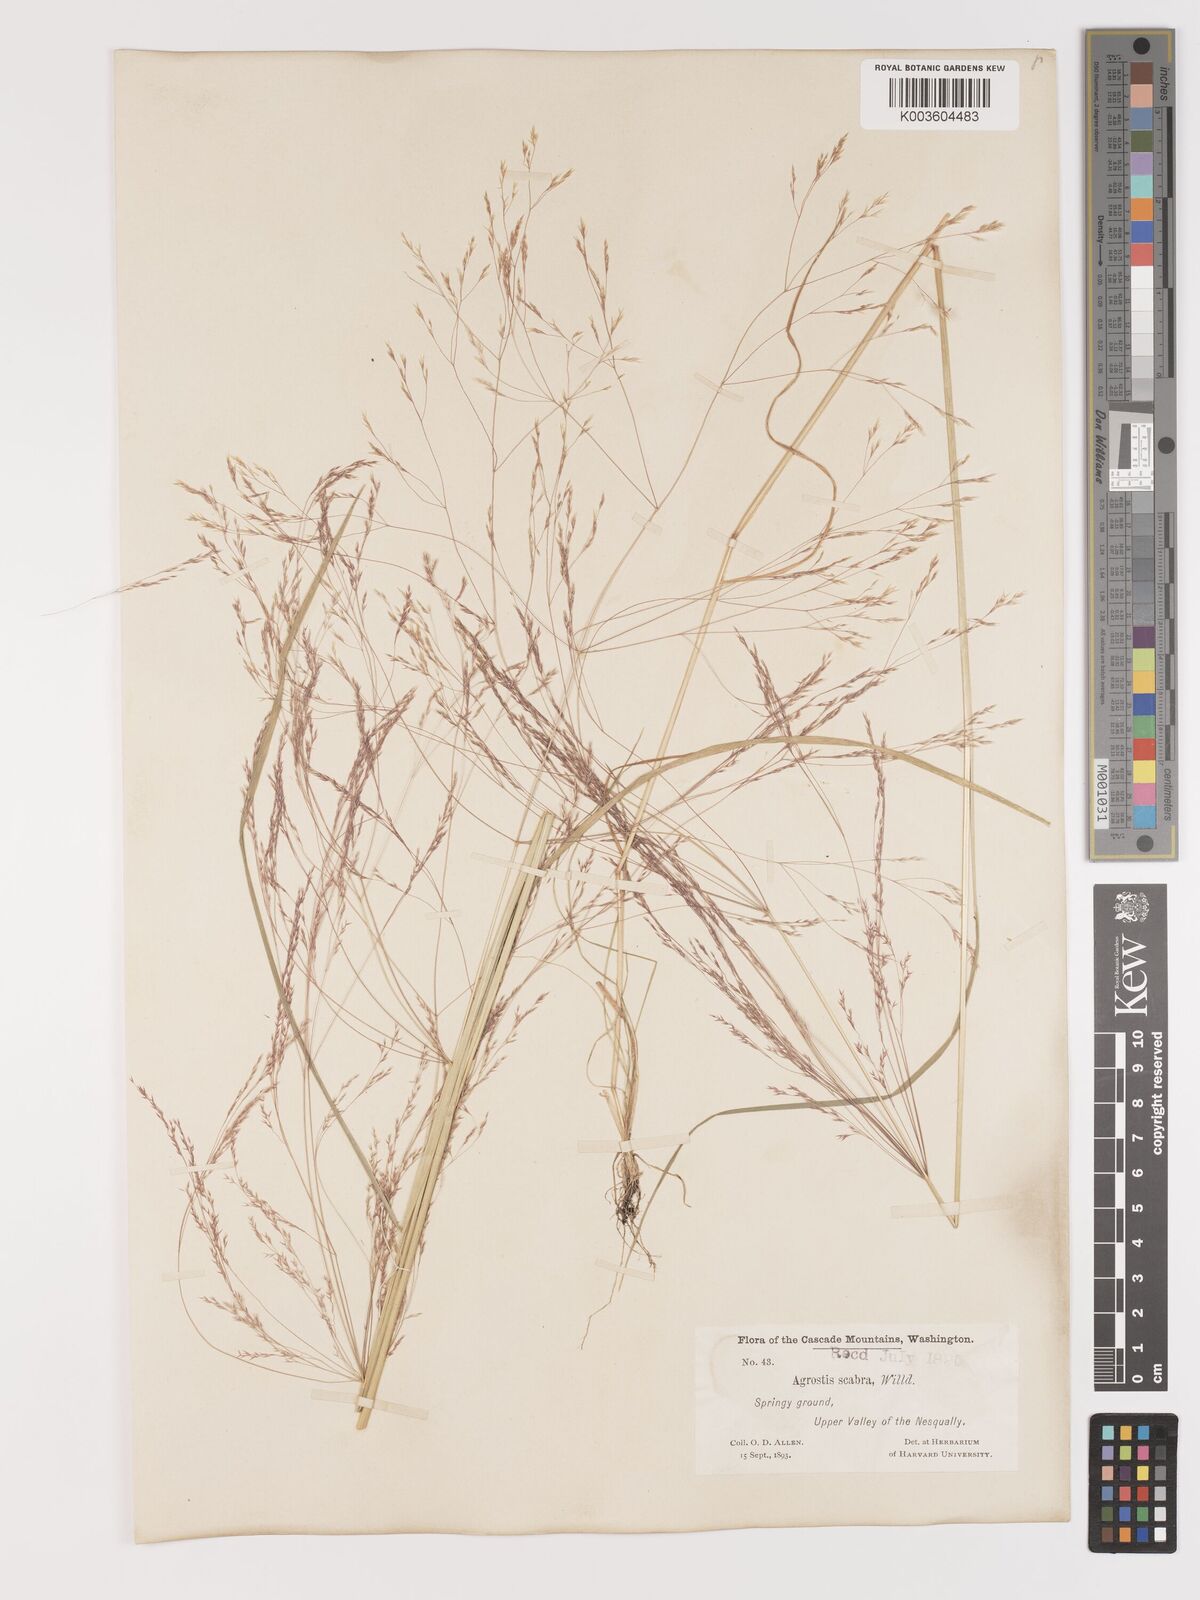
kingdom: Plantae
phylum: Tracheophyta
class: Liliopsida
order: Poales
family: Poaceae
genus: Agrostis
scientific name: Agrostis hyemalis
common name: Small bent
